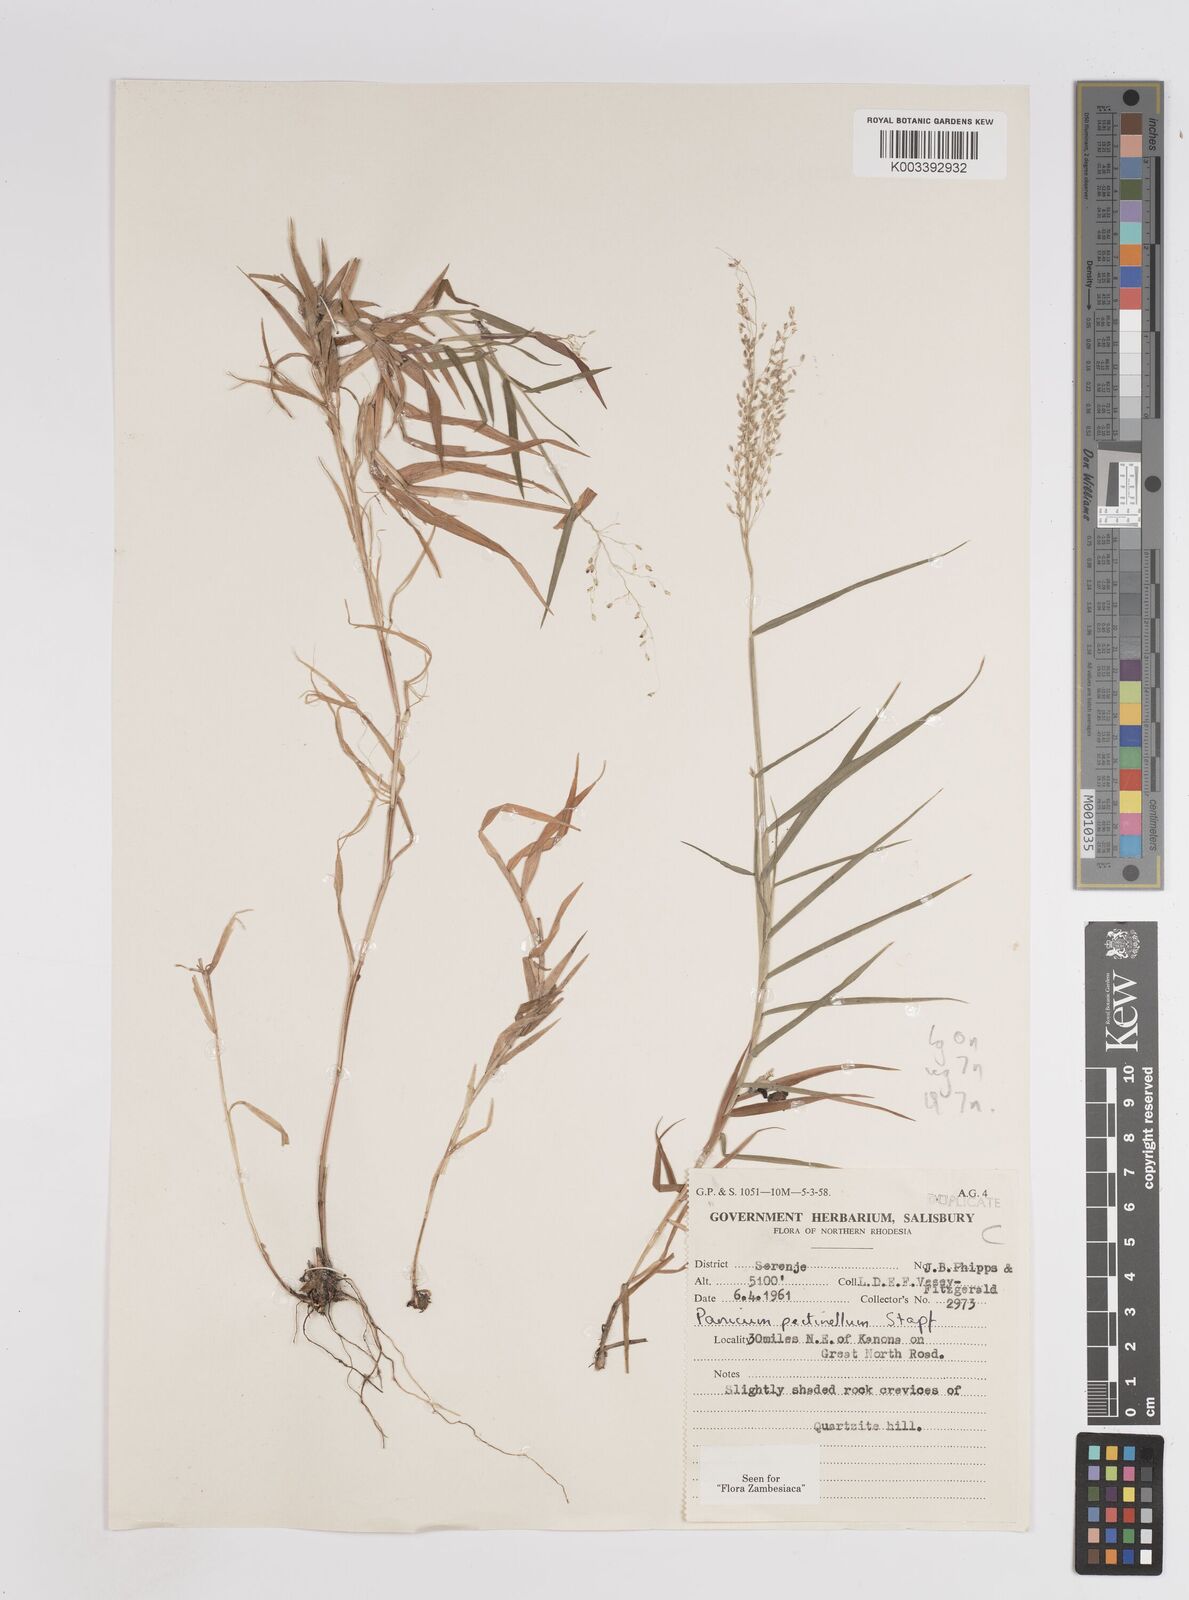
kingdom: Plantae
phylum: Tracheophyta
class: Liliopsida
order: Poales
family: Poaceae
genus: Adenochloa
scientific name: Adenochloa pectinella
